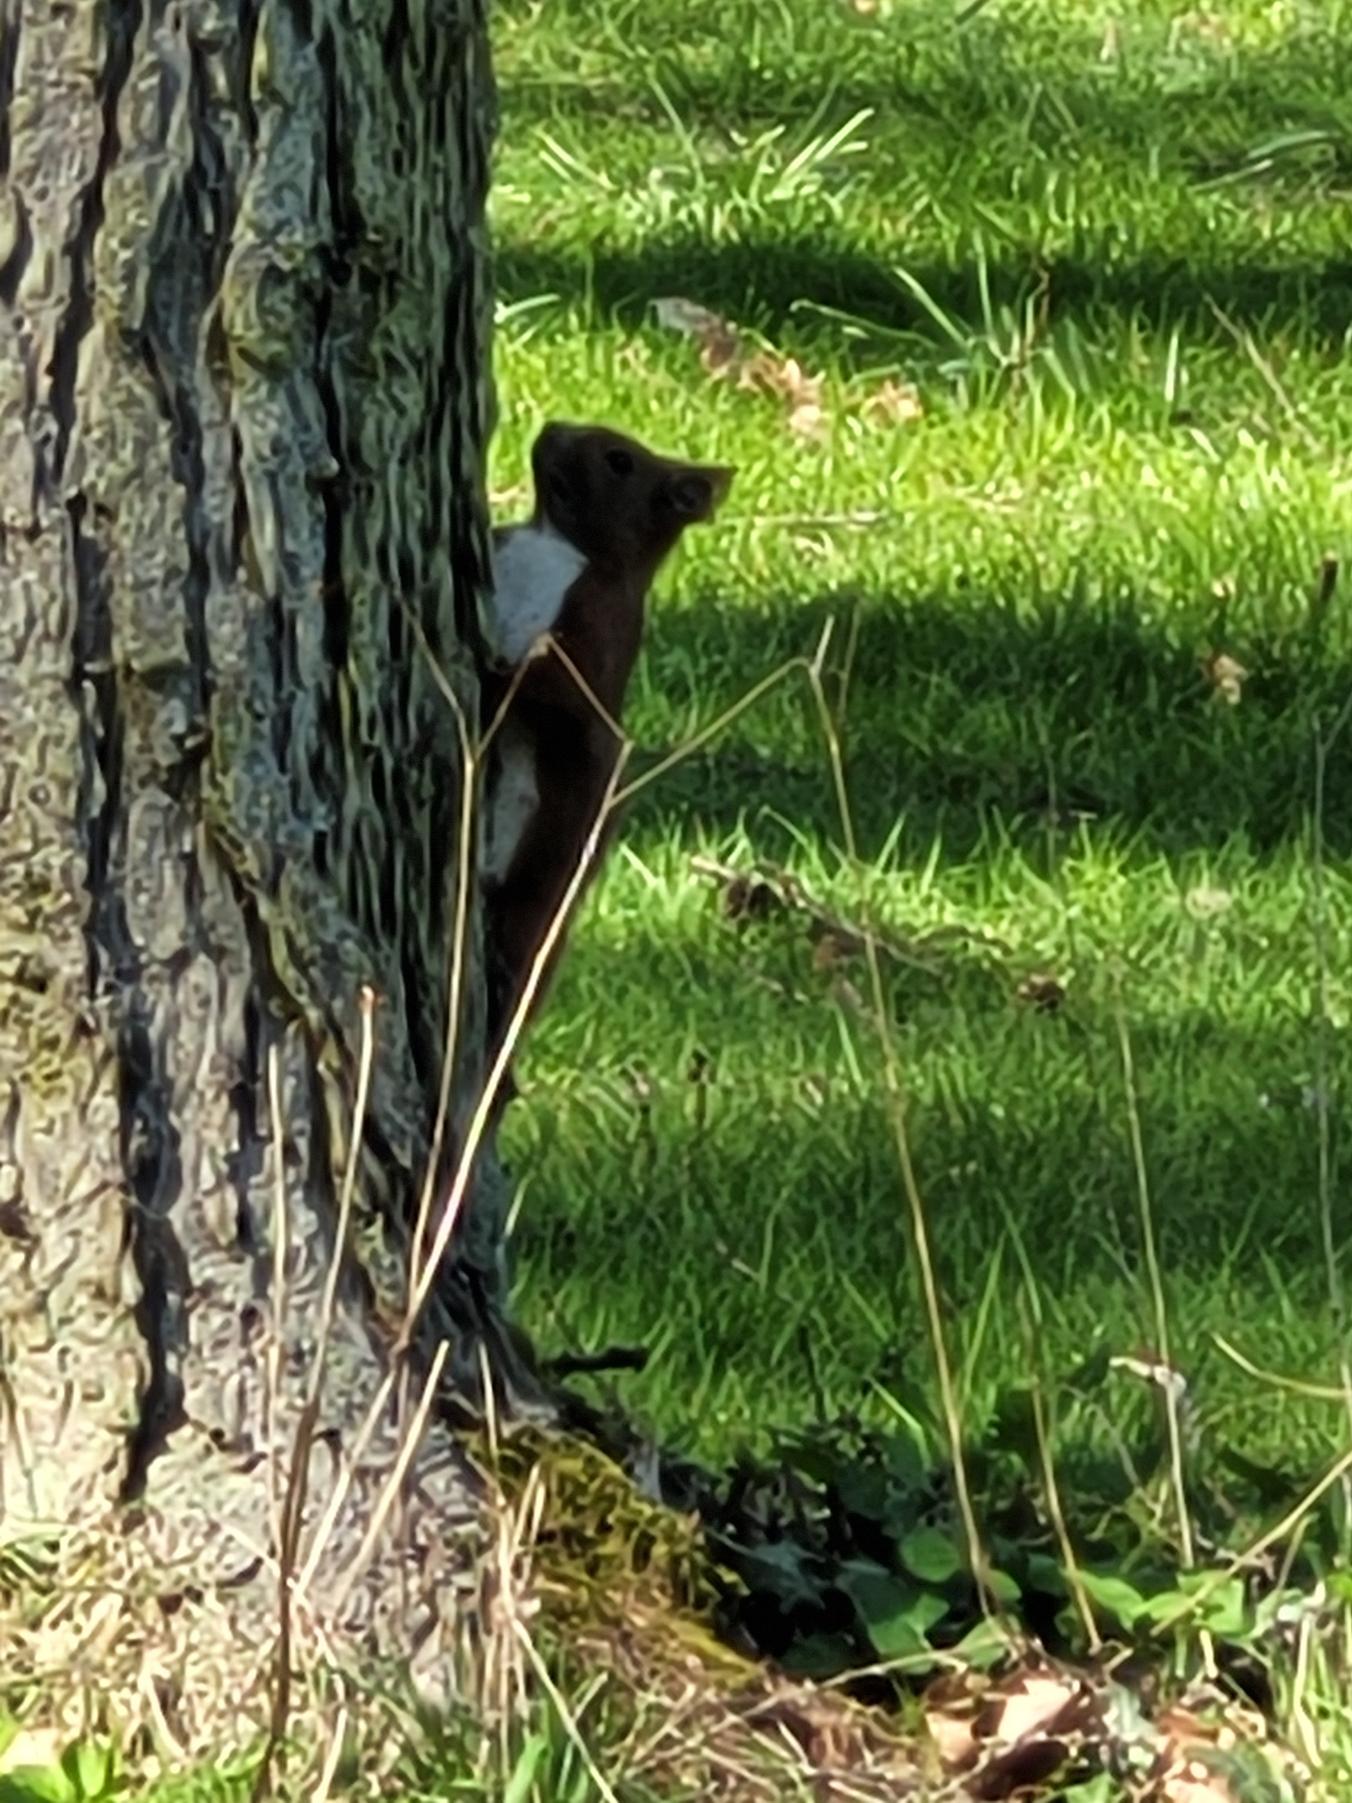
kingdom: Animalia
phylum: Chordata
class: Mammalia
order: Rodentia
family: Sciuridae
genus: Sciurus
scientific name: Sciurus vulgaris
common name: Egern
